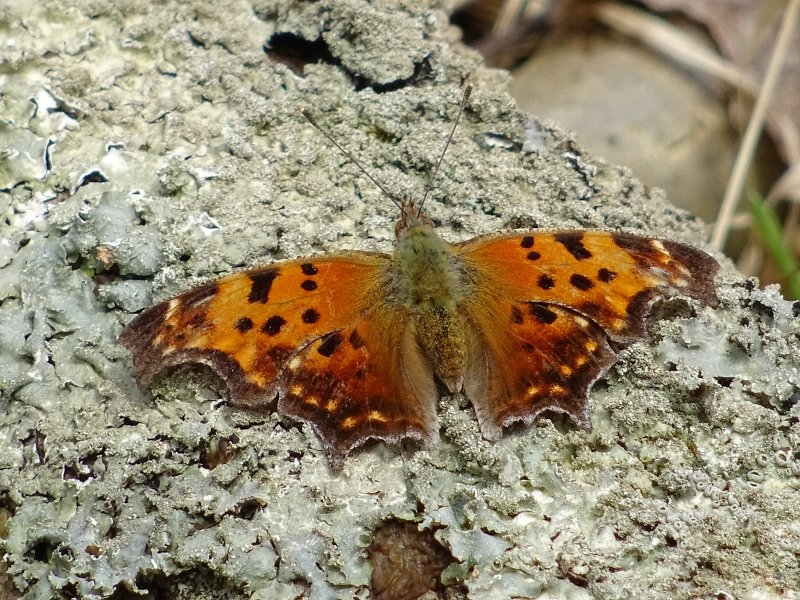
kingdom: Animalia
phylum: Arthropoda
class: Insecta
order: Lepidoptera
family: Nymphalidae
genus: Polygonia
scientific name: Polygonia comma
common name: Eastern Comma
